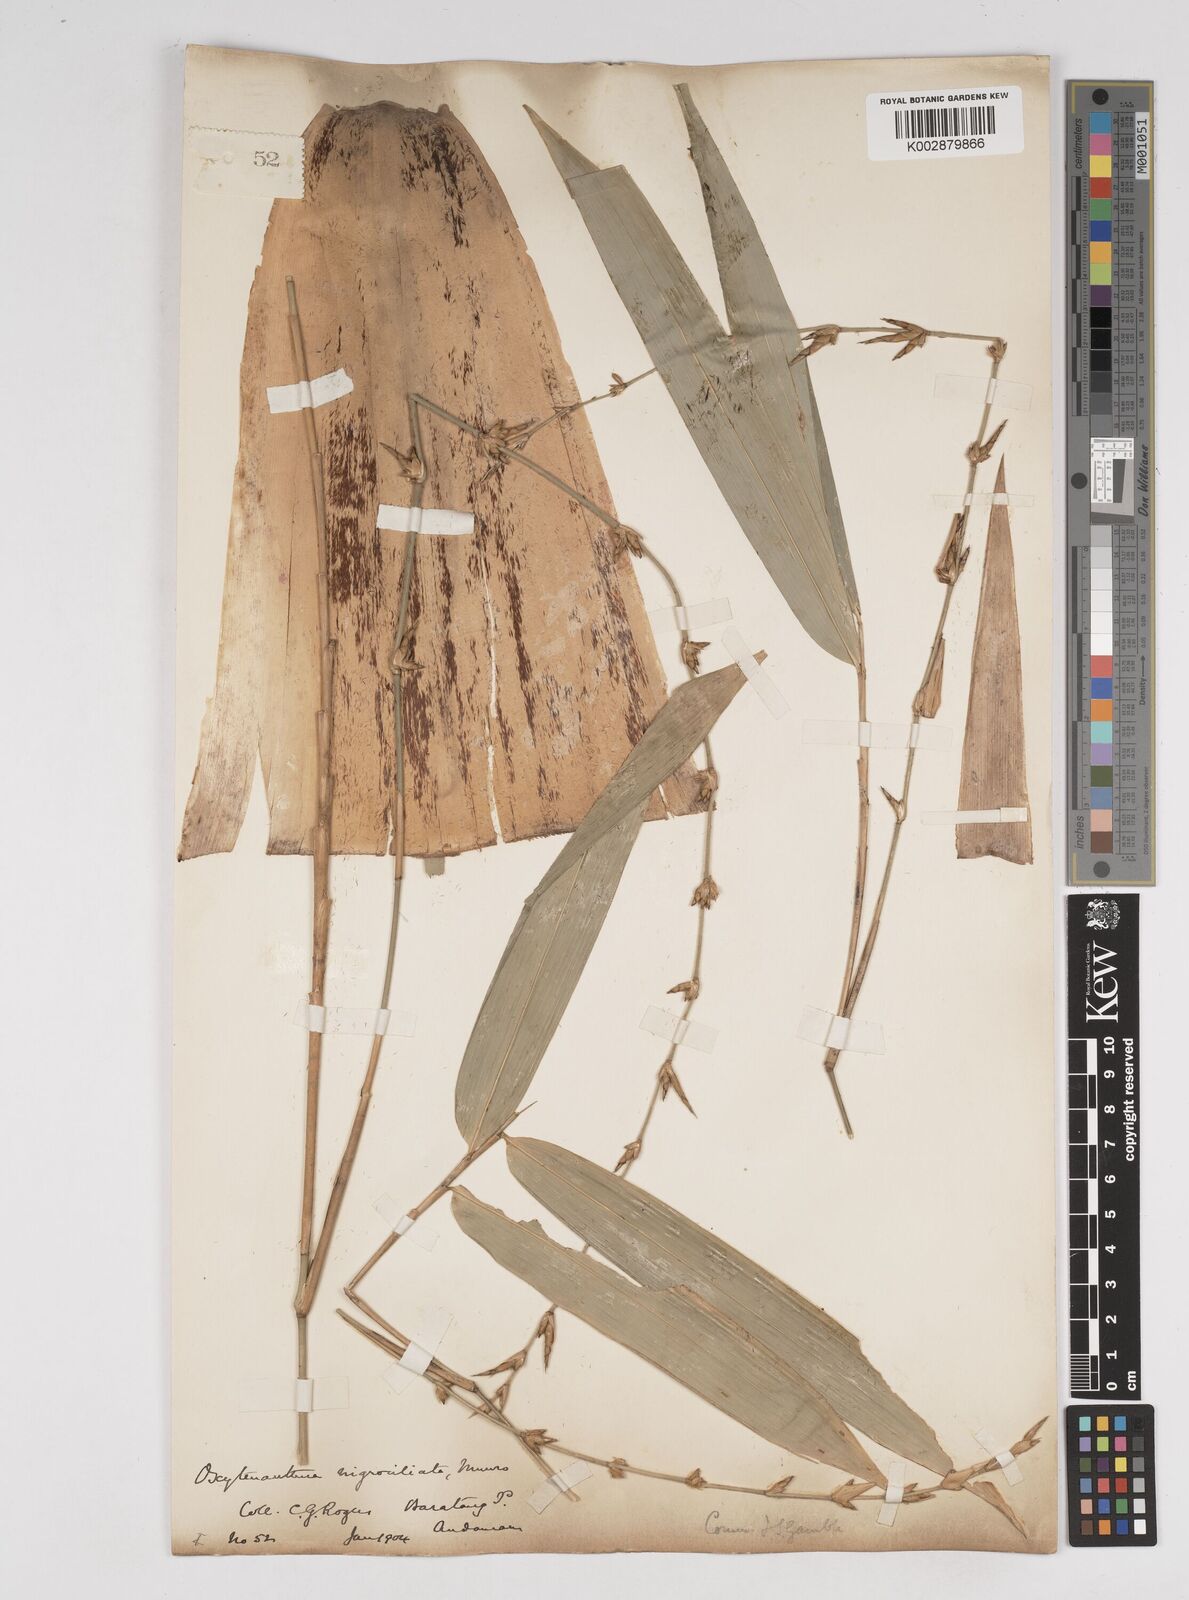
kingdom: Plantae
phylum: Tracheophyta
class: Liliopsida
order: Poales
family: Poaceae
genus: Gigantochloa
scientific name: Gigantochloa
